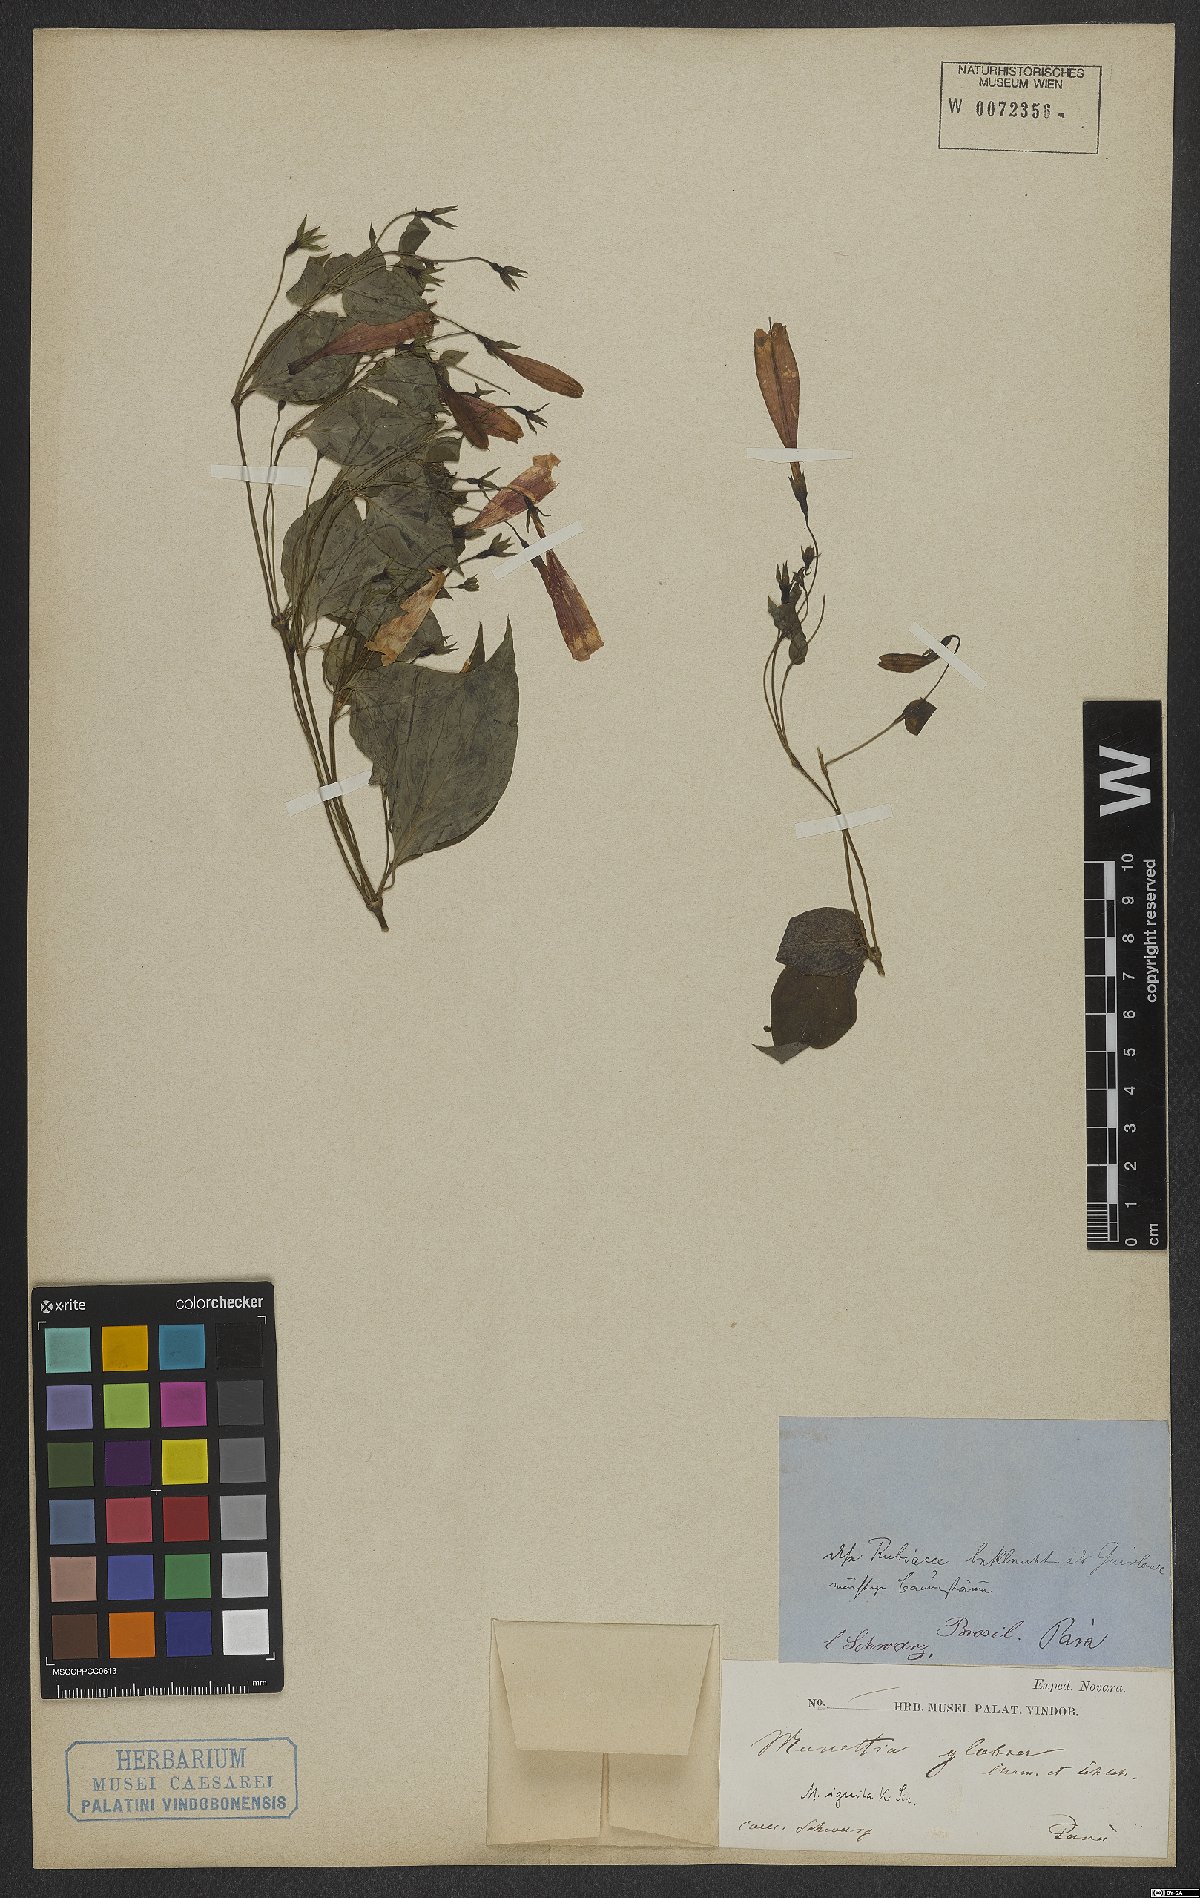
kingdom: Plantae
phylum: Tracheophyta
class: Magnoliopsida
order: Gentianales
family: Rubiaceae
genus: Manettia
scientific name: Manettia cordifolia
